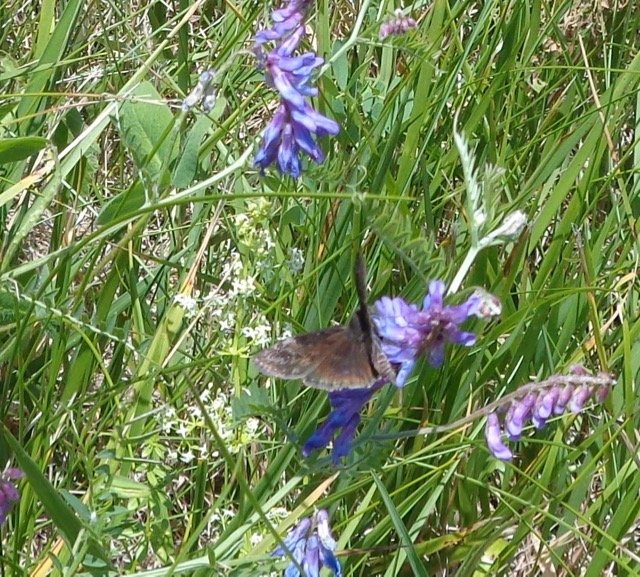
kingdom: Animalia
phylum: Arthropoda
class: Insecta
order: Lepidoptera
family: Hesperiidae
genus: Gesta
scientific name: Gesta
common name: Wild Indigo Duskywing
